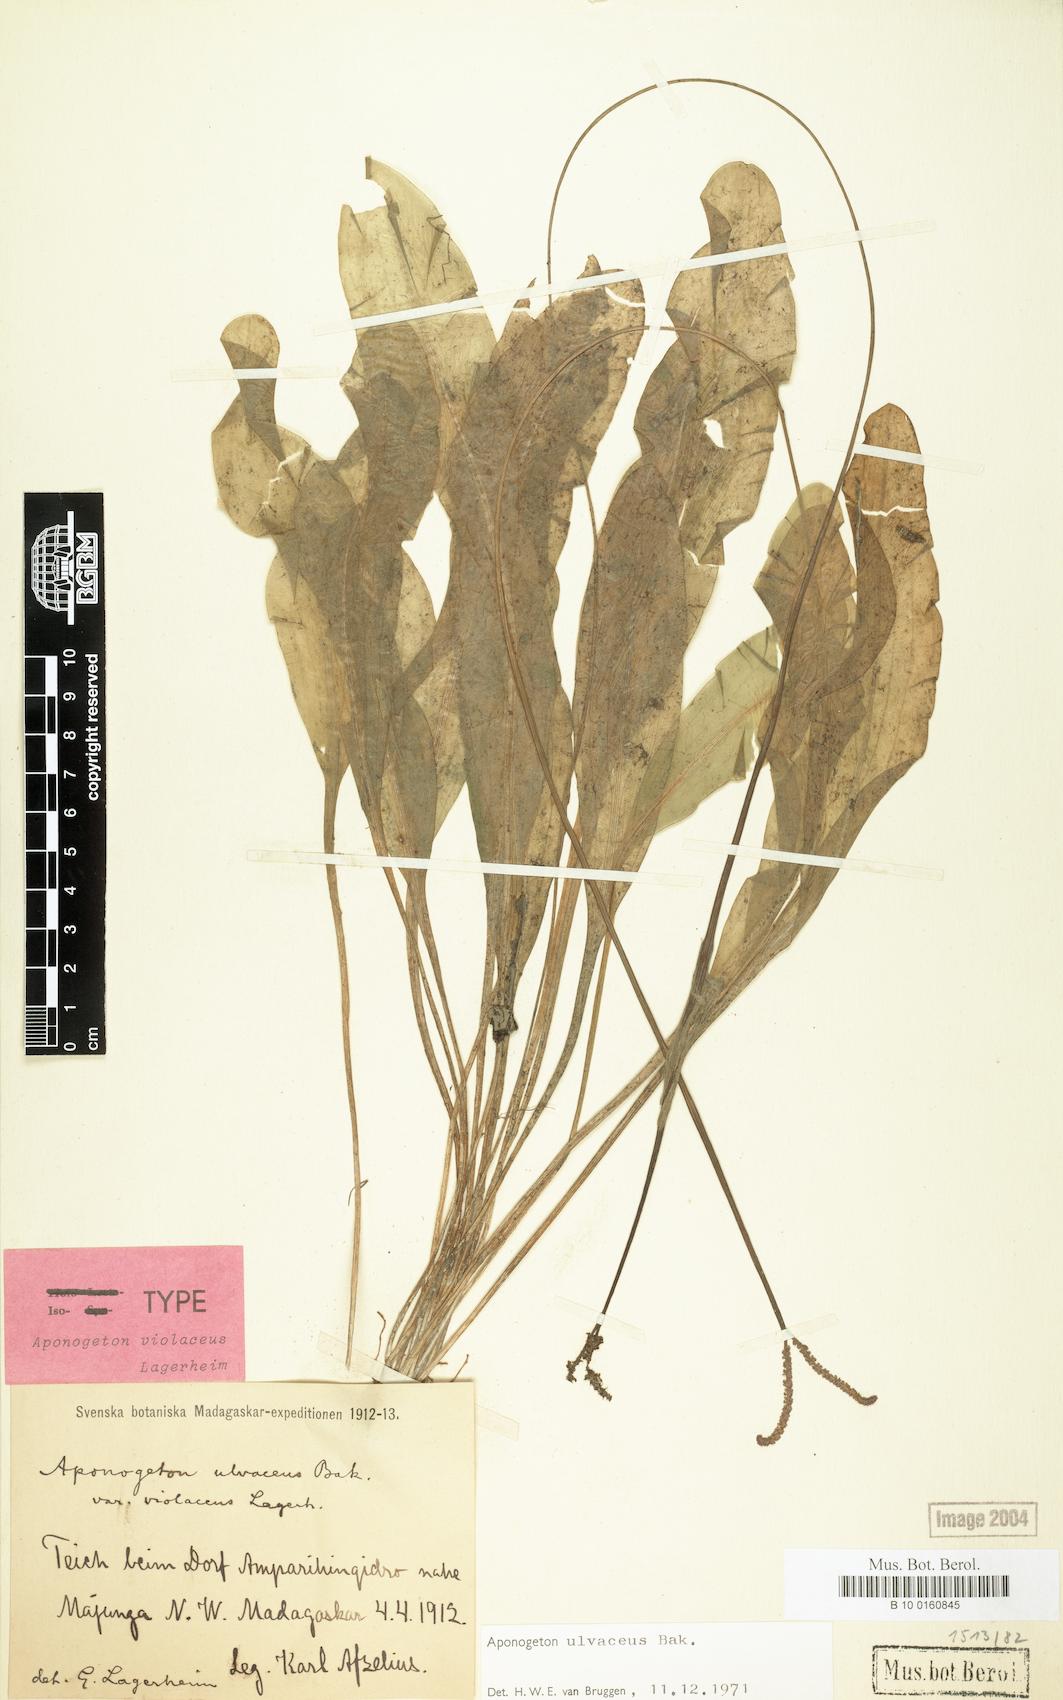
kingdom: Plantae
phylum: Tracheophyta
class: Liliopsida
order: Alismatales
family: Aponogetonaceae
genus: Aponogeton
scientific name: Aponogeton ulvaceus
